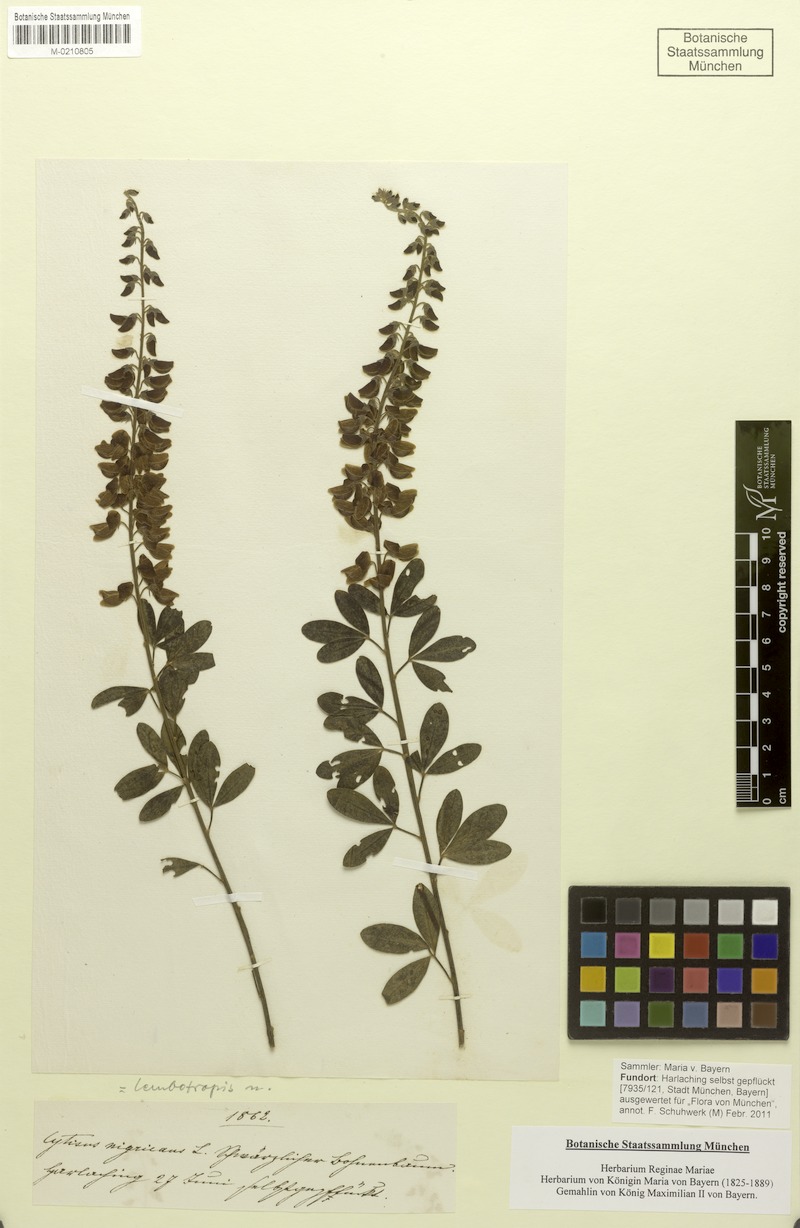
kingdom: Plantae
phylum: Tracheophyta
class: Magnoliopsida
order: Fabales
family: Fabaceae
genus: Cytisus
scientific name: Cytisus nigricans
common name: Black broom
